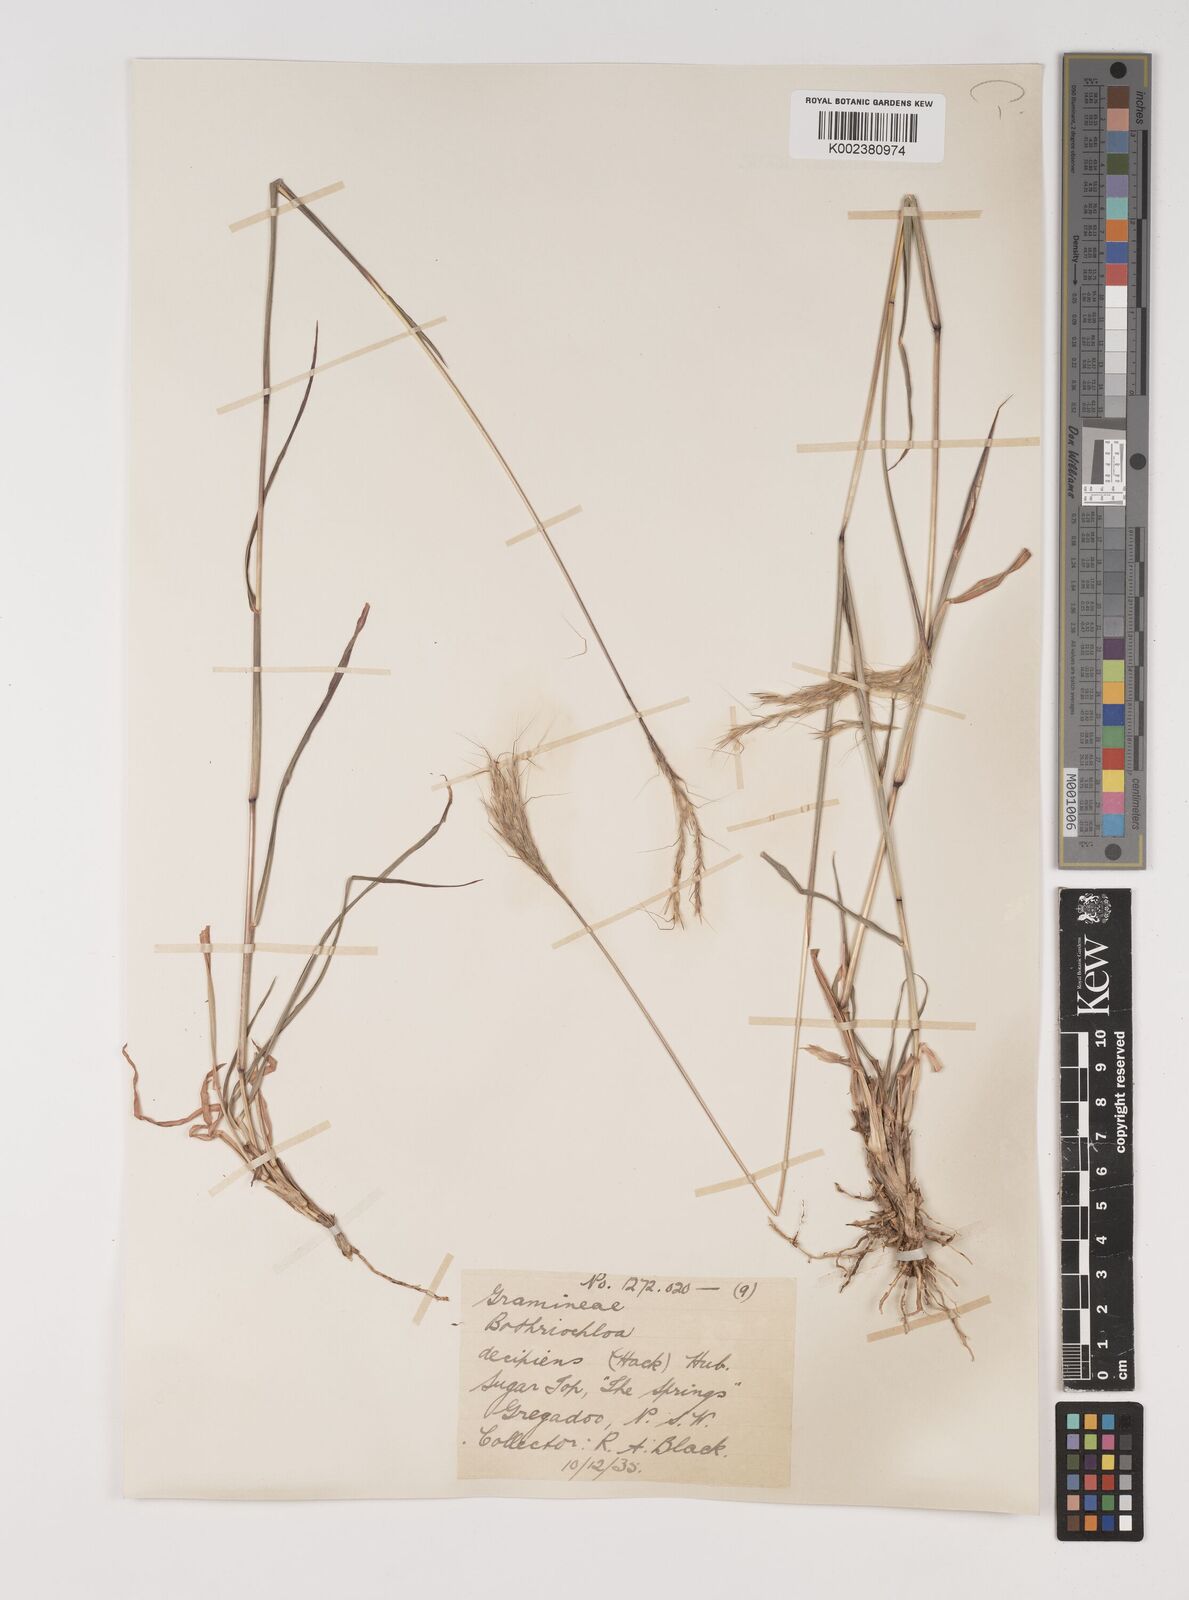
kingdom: Plantae
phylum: Tracheophyta
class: Liliopsida
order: Poales
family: Poaceae
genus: Bothriochloa
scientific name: Bothriochloa decipiens
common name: Pitted-bluegrass
